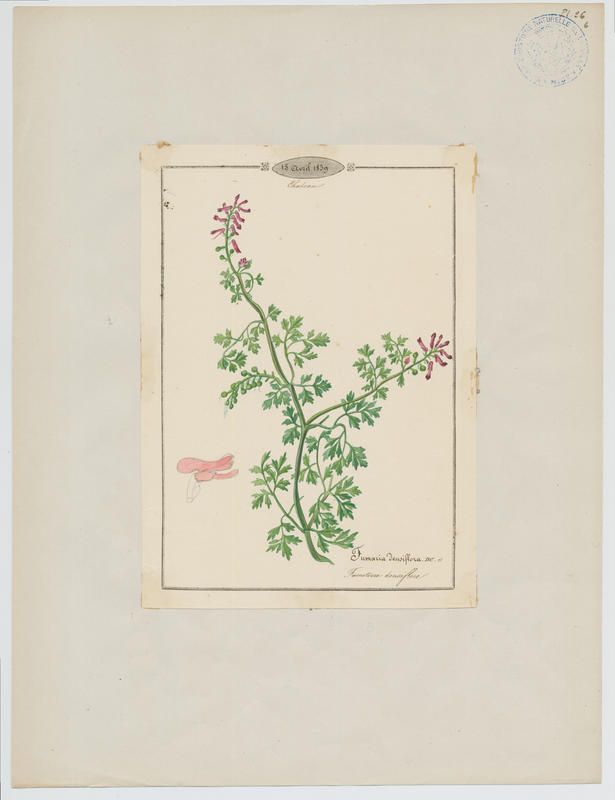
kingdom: Plantae
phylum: Tracheophyta
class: Magnoliopsida
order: Ranunculales
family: Papaveraceae
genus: Fumaria
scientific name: Fumaria densiflora
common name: Dense-flowered fumitory
